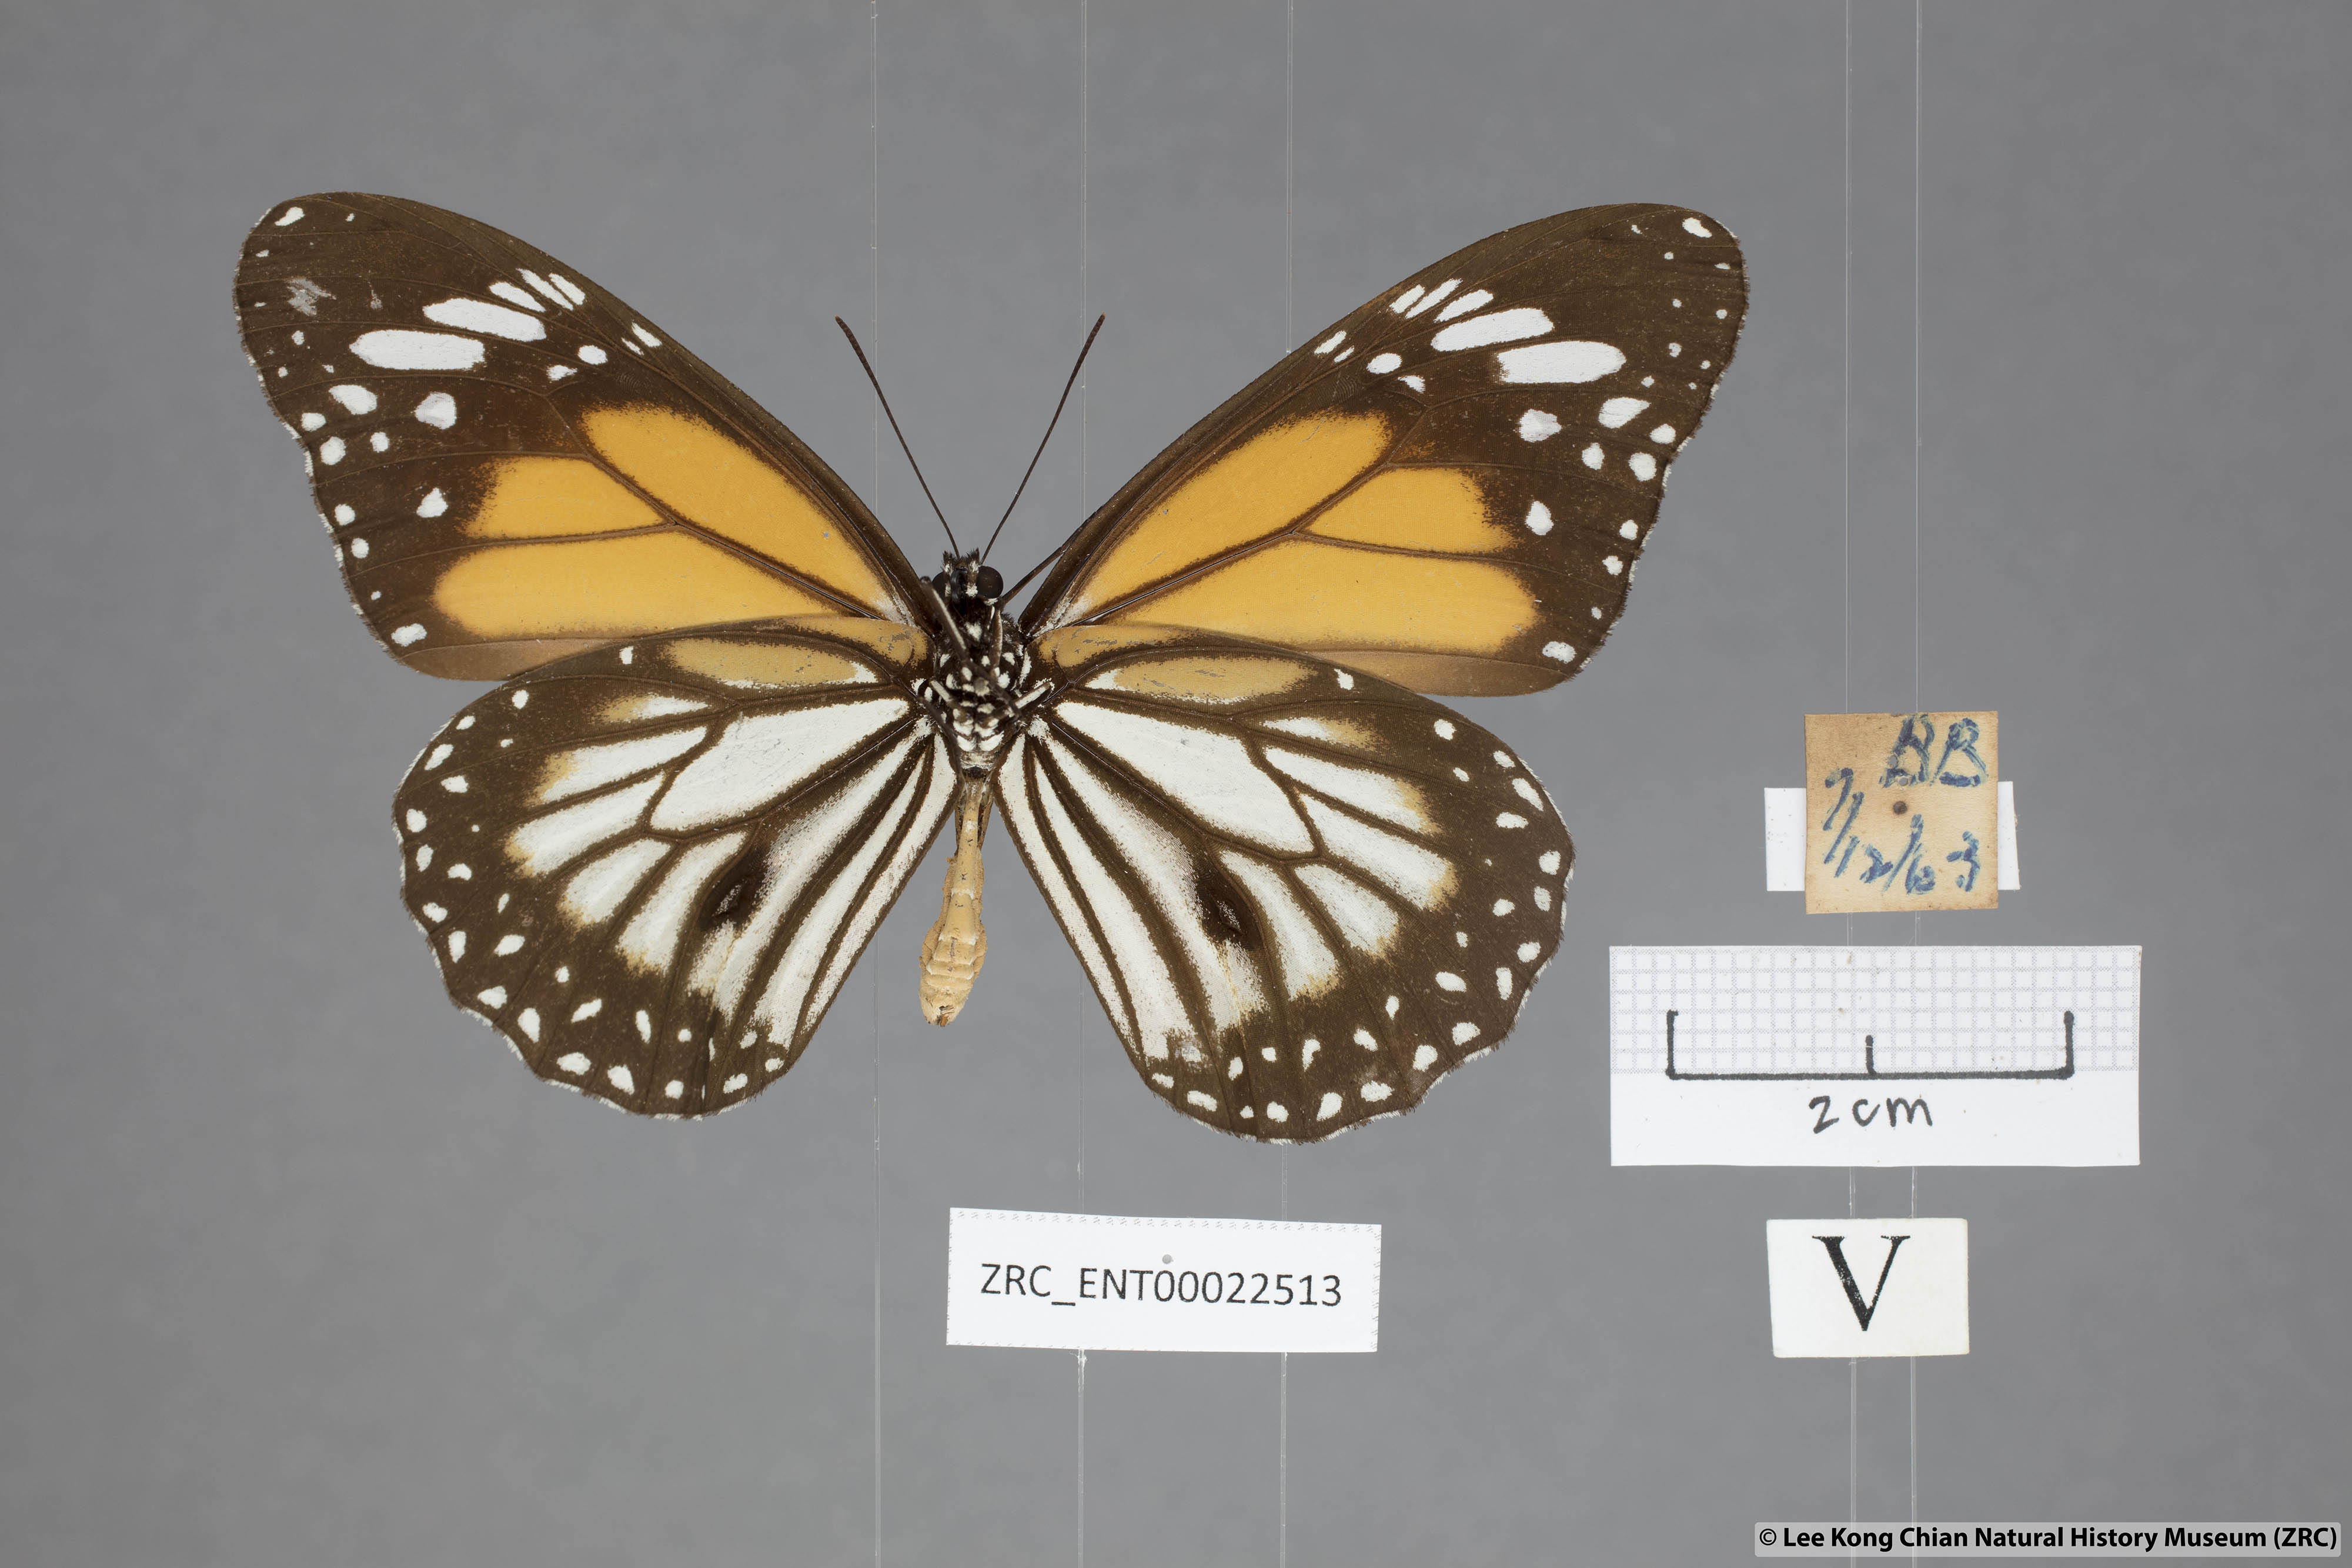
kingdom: Animalia
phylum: Arthropoda
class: Insecta
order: Lepidoptera
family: Nymphalidae
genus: Danaus
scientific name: Danaus melanippus
